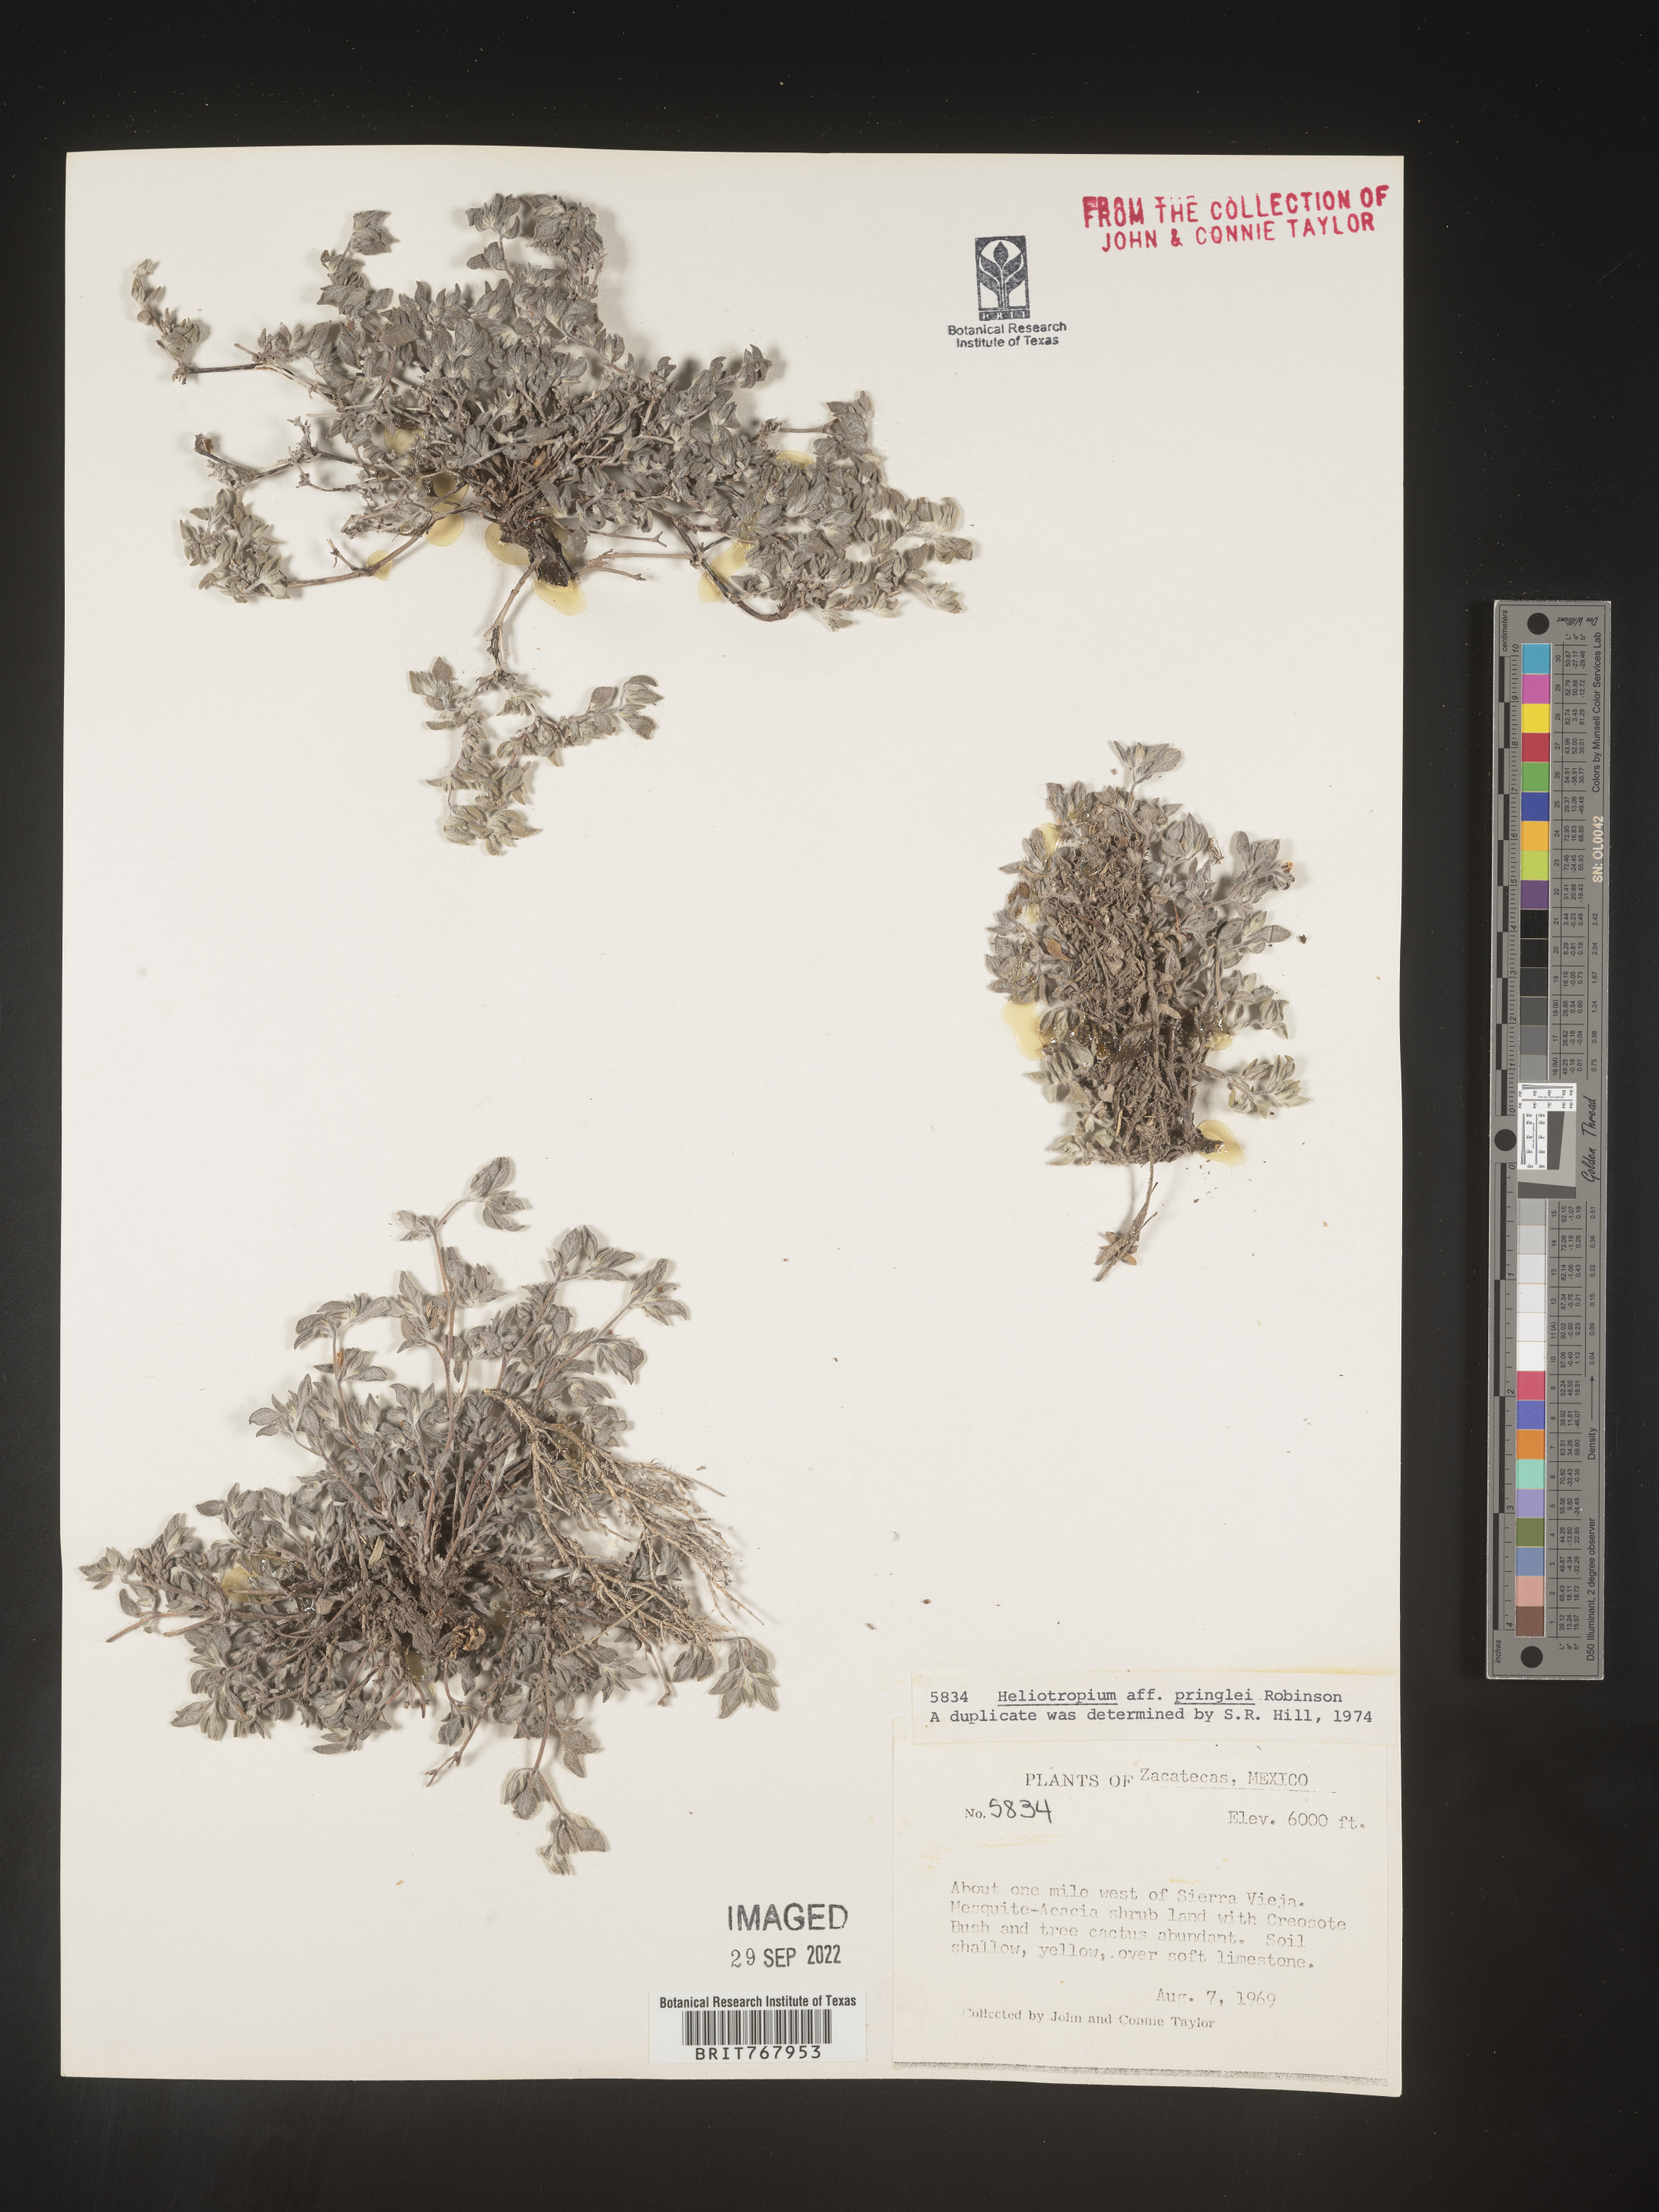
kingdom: Plantae
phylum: Tracheophyta
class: Magnoliopsida
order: Boraginales
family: Heliotropiaceae
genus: Heliotropium
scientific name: Heliotropium
